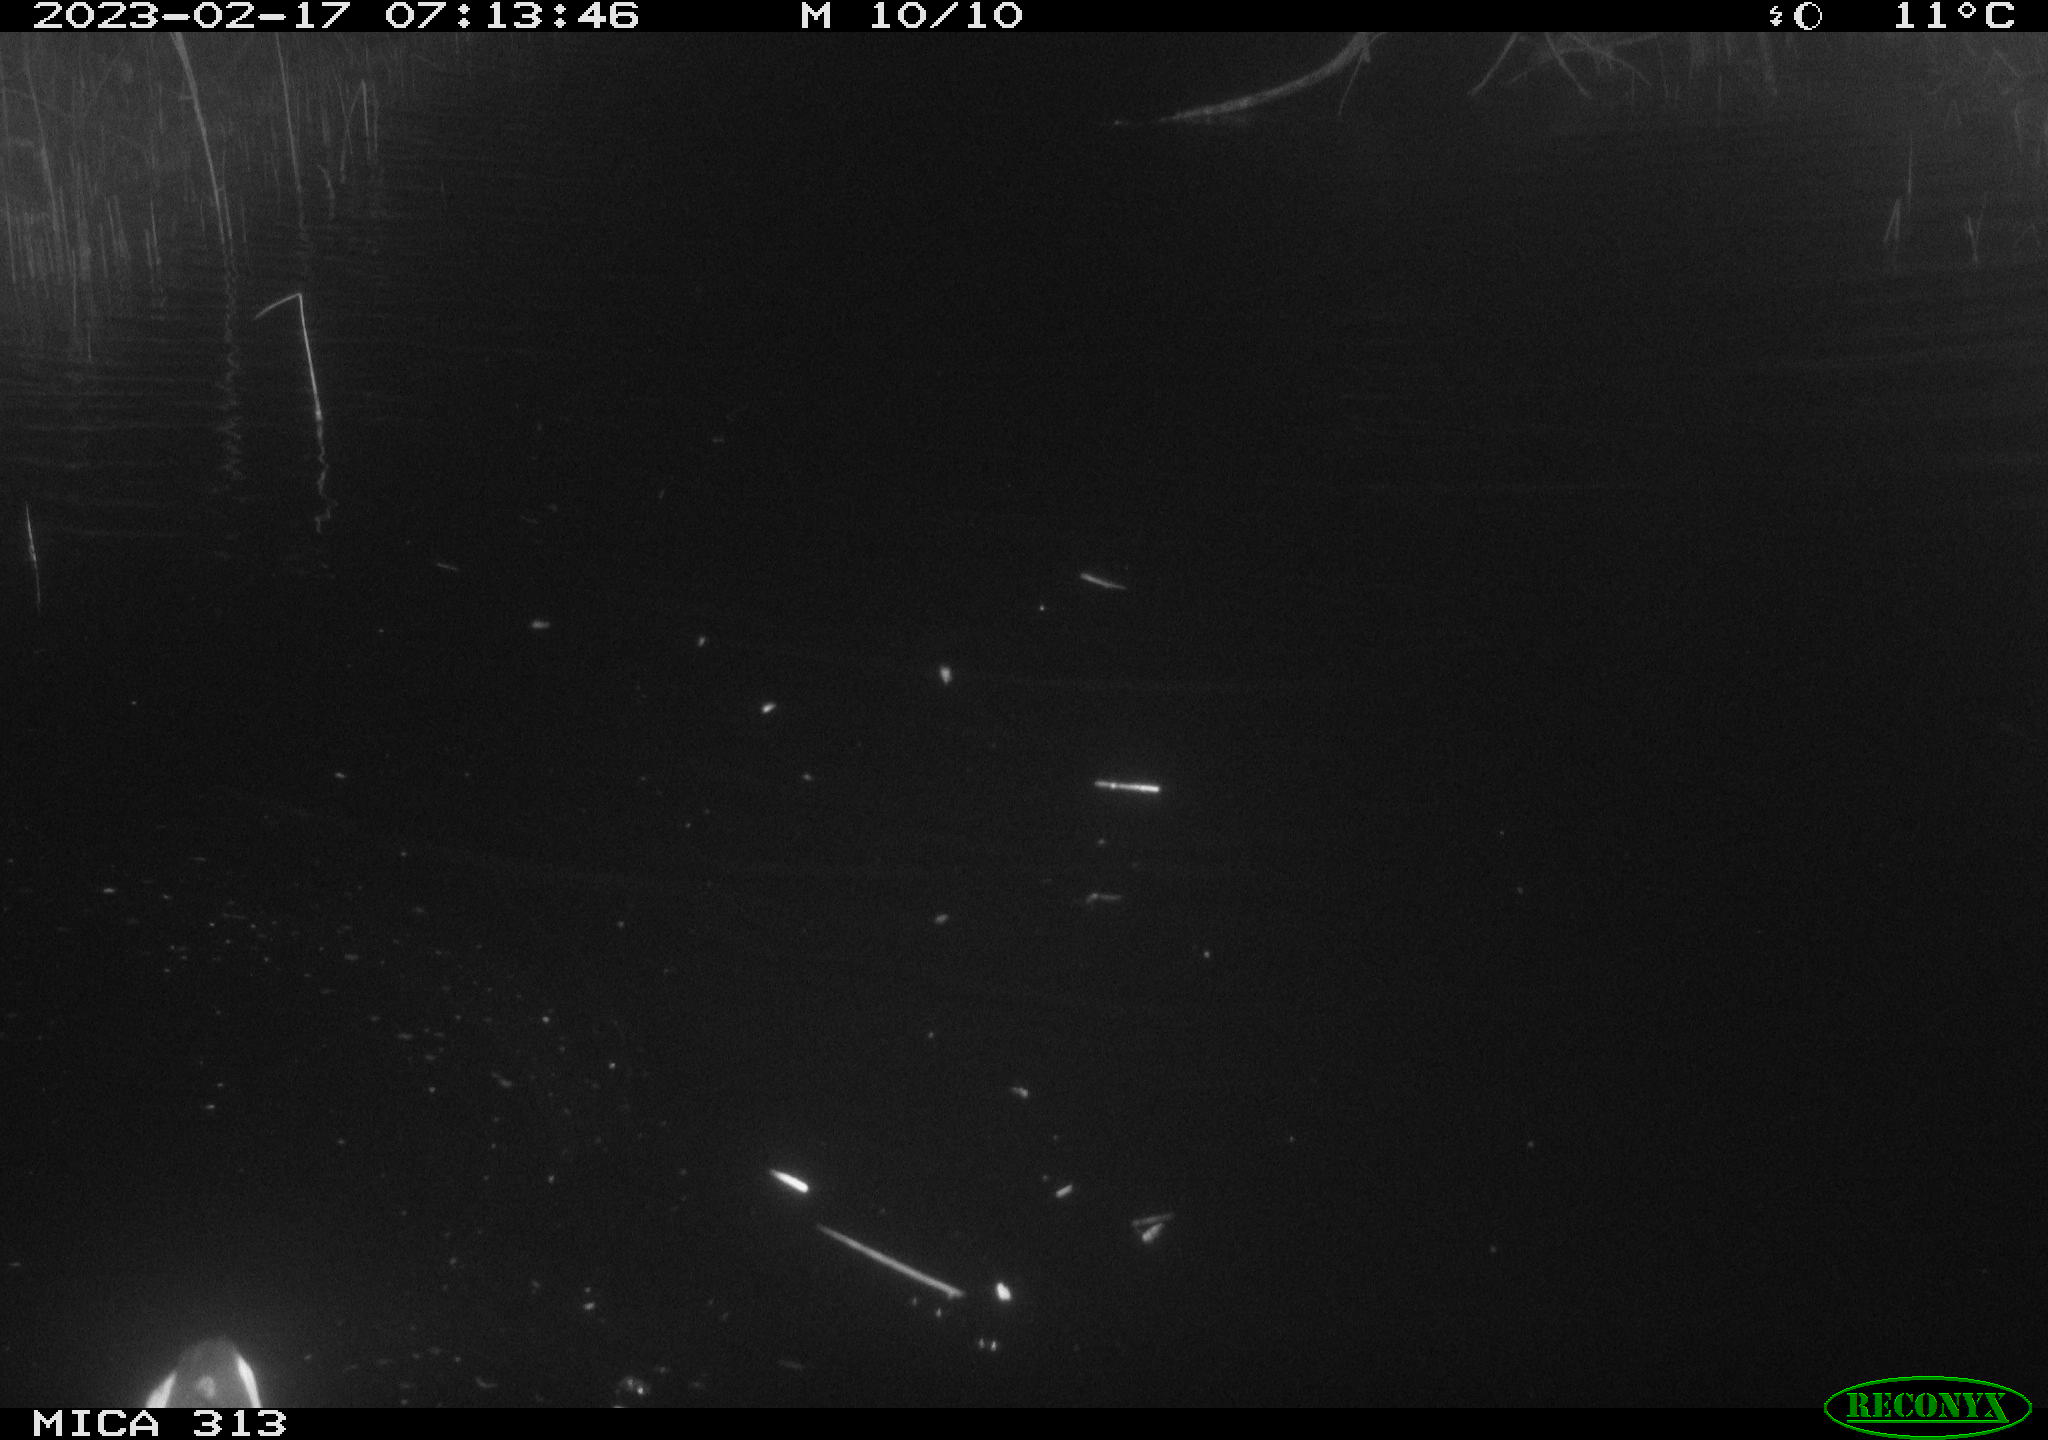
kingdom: Animalia
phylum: Chordata
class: Aves
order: Gruiformes
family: Rallidae
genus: Fulica
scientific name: Fulica atra
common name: Eurasian coot
